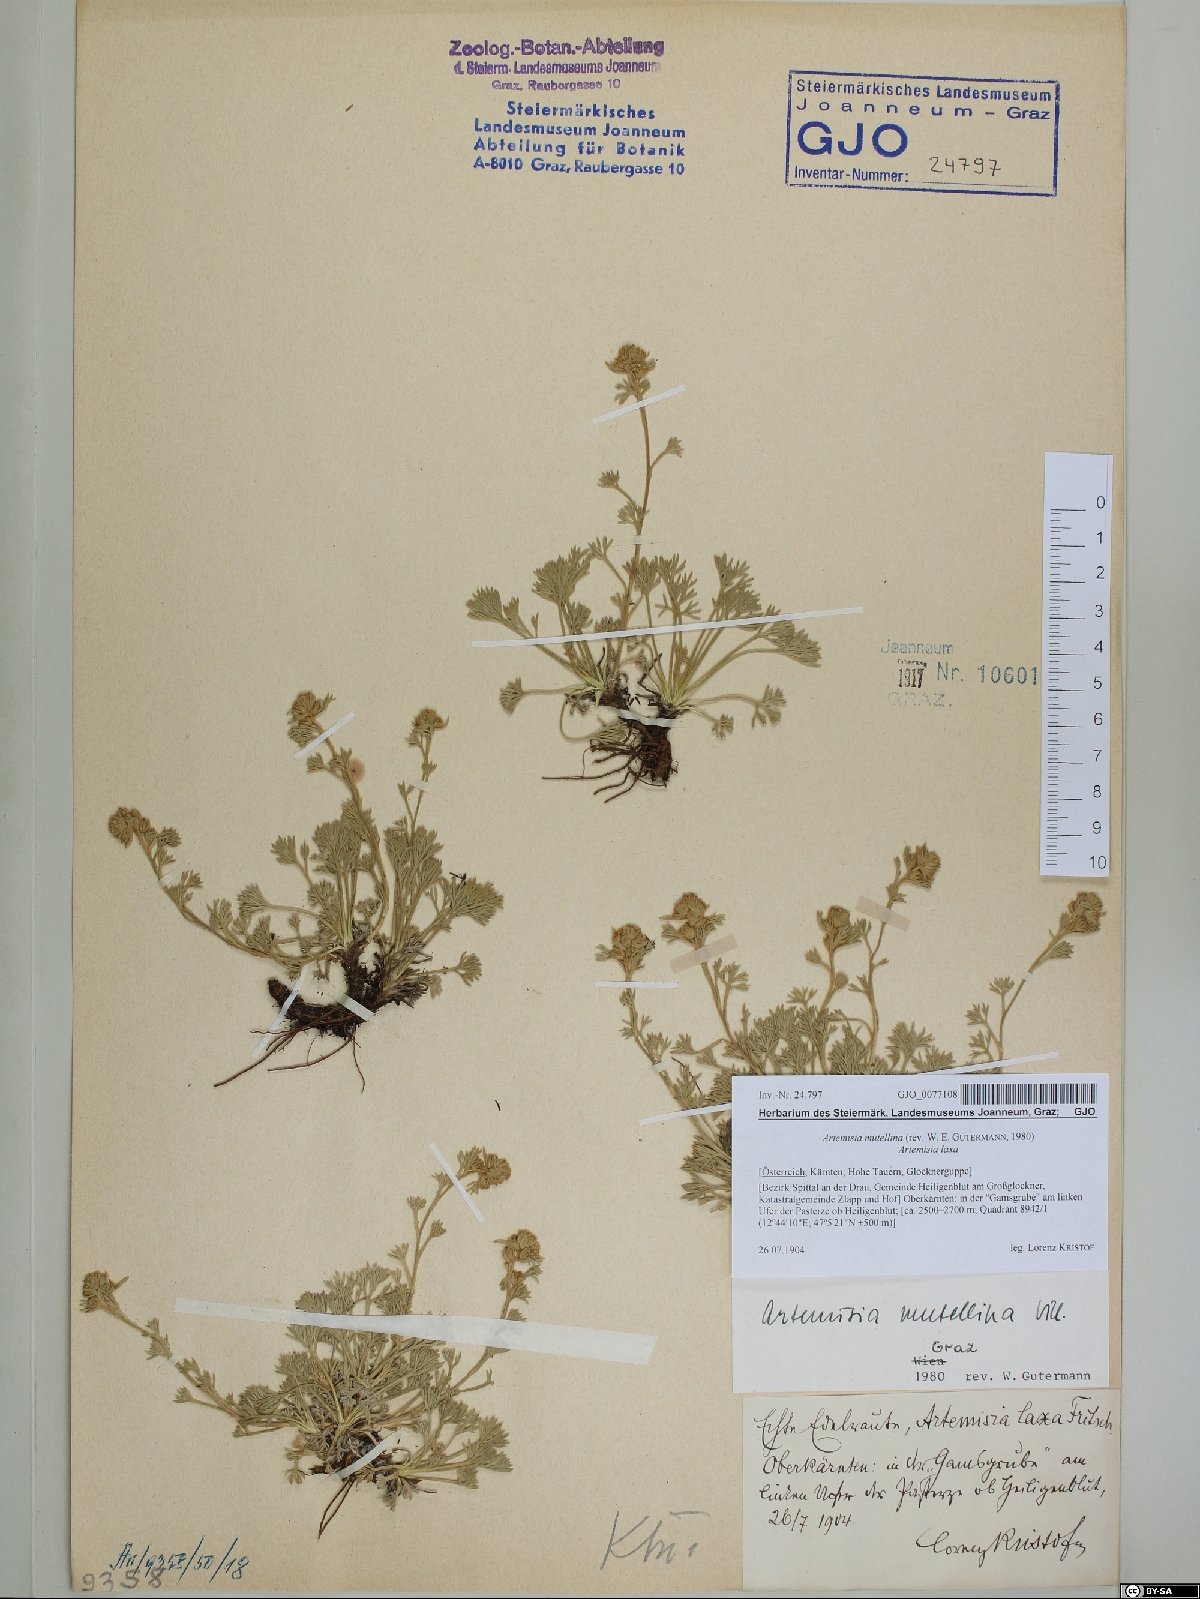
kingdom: Plantae
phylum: Tracheophyta
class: Magnoliopsida
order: Asterales
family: Asteraceae
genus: Artemisia
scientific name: Artemisia mutellina
